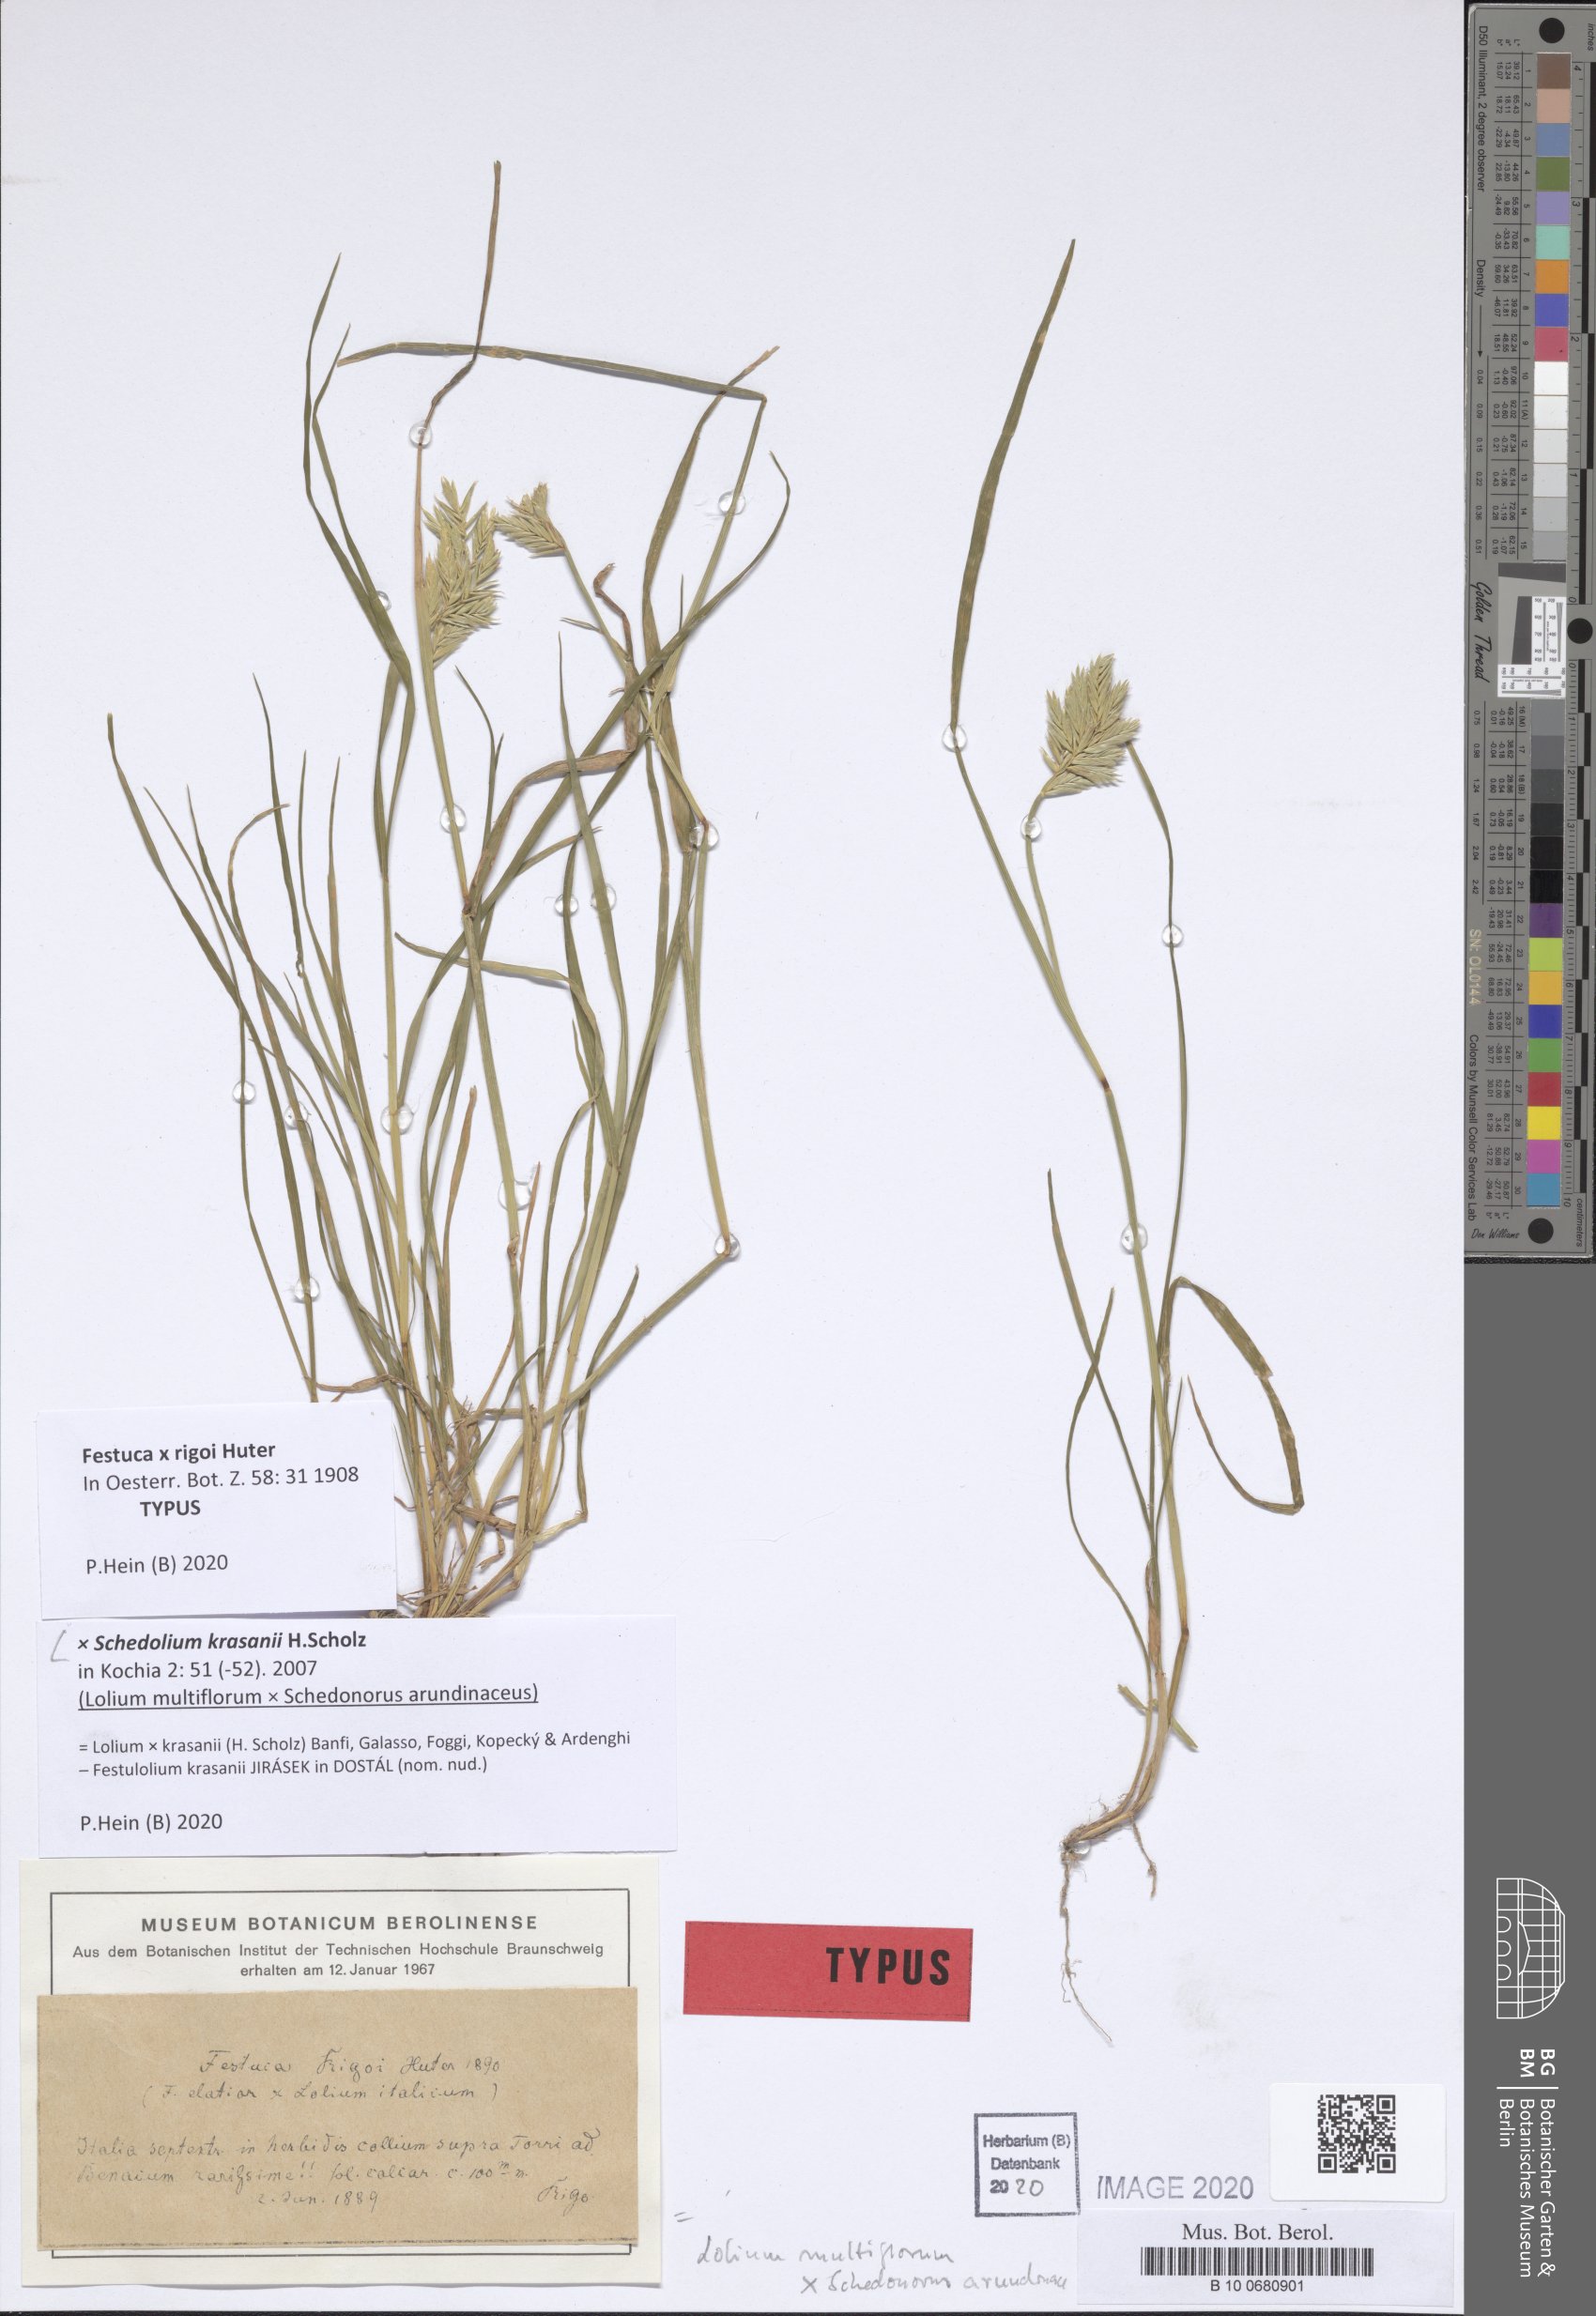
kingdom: Plantae
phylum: Tracheophyta
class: Liliopsida
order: Poales
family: Poaceae
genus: Lolium
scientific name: Lolium krasanii
